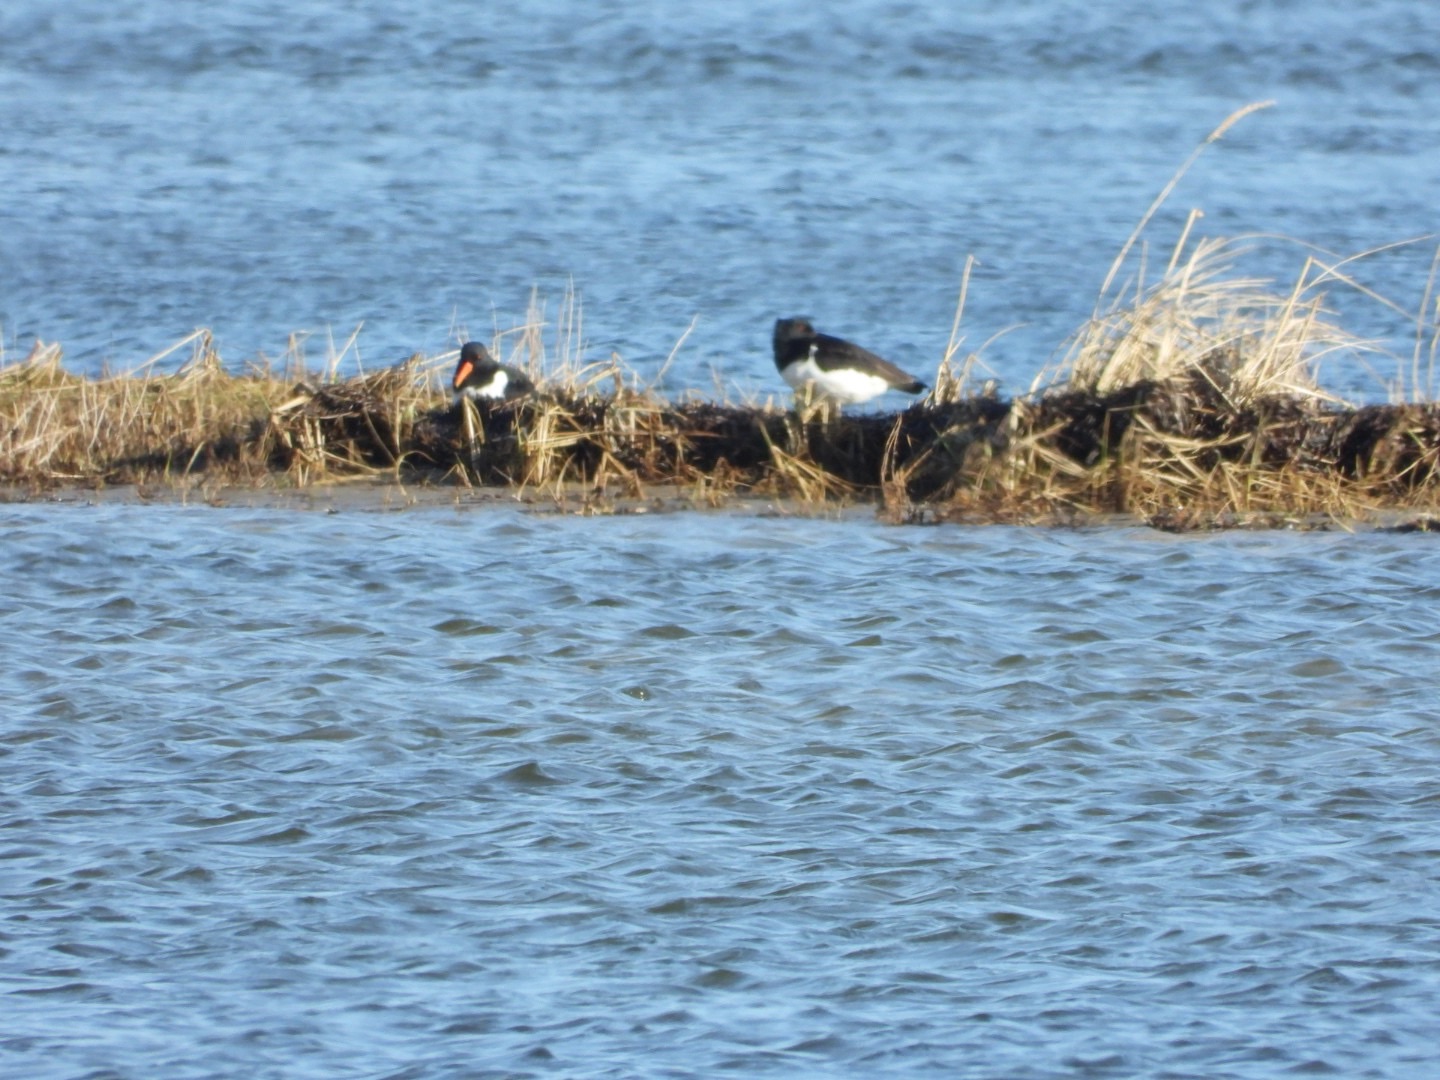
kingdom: Animalia
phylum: Chordata
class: Aves
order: Charadriiformes
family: Haematopodidae
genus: Haematopus
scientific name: Haematopus ostralegus
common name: Strandskade
